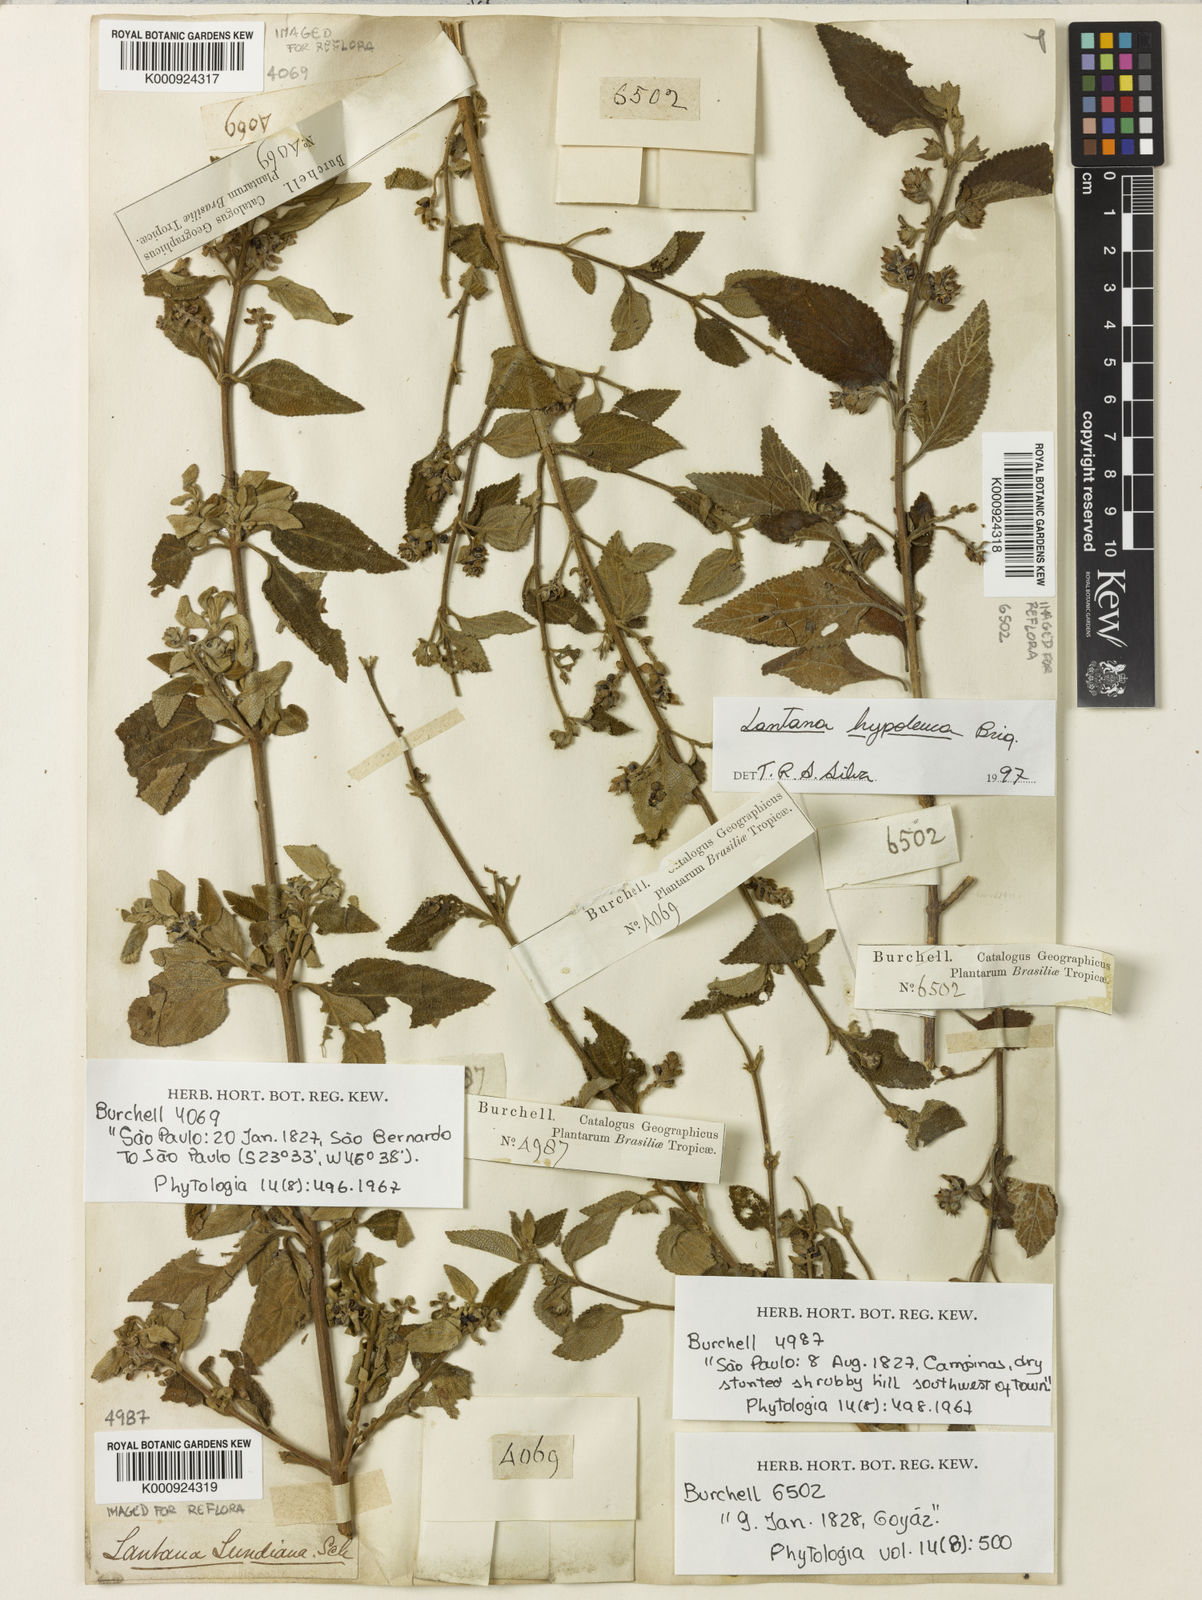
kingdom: Plantae
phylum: Tracheophyta
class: Magnoliopsida
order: Lamiales
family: Verbenaceae
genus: Lantana
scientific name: Lantana hypoleuca
